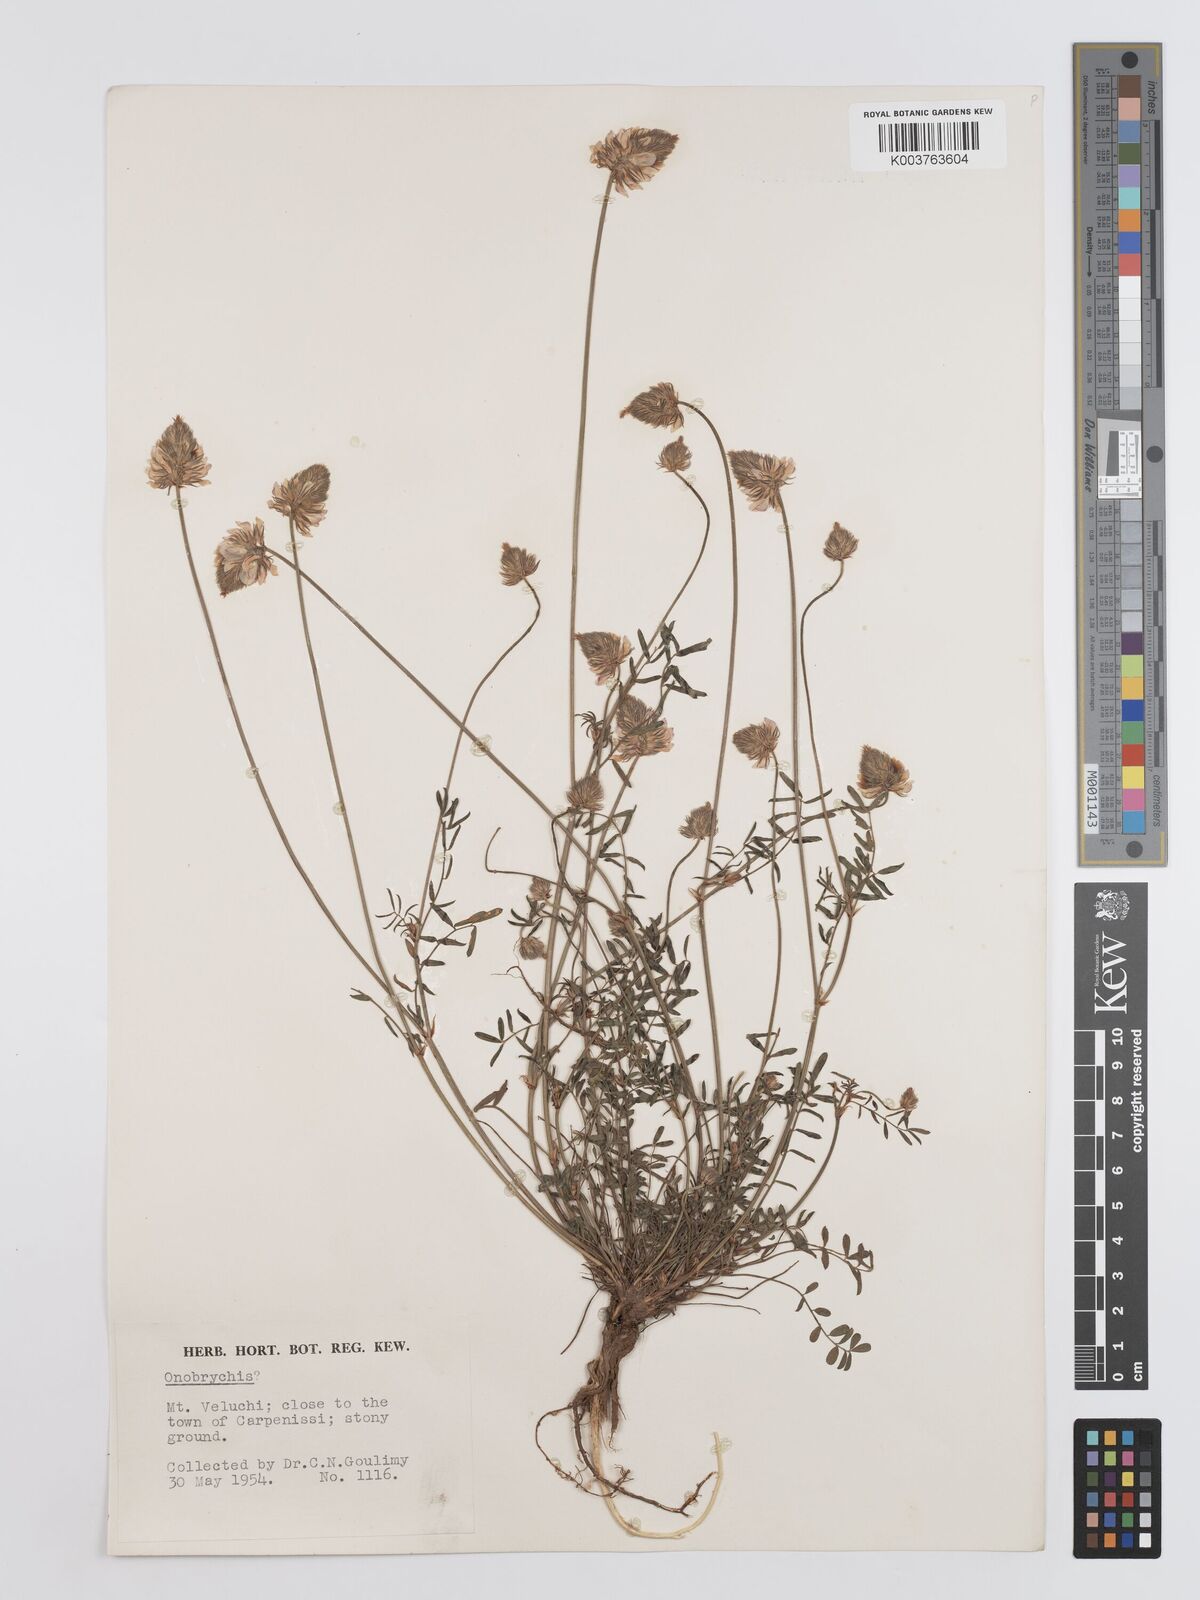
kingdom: Plantae
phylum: Tracheophyta
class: Magnoliopsida
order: Fabales
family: Fabaceae
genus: Onobrychis
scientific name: Onobrychis ebenoides
